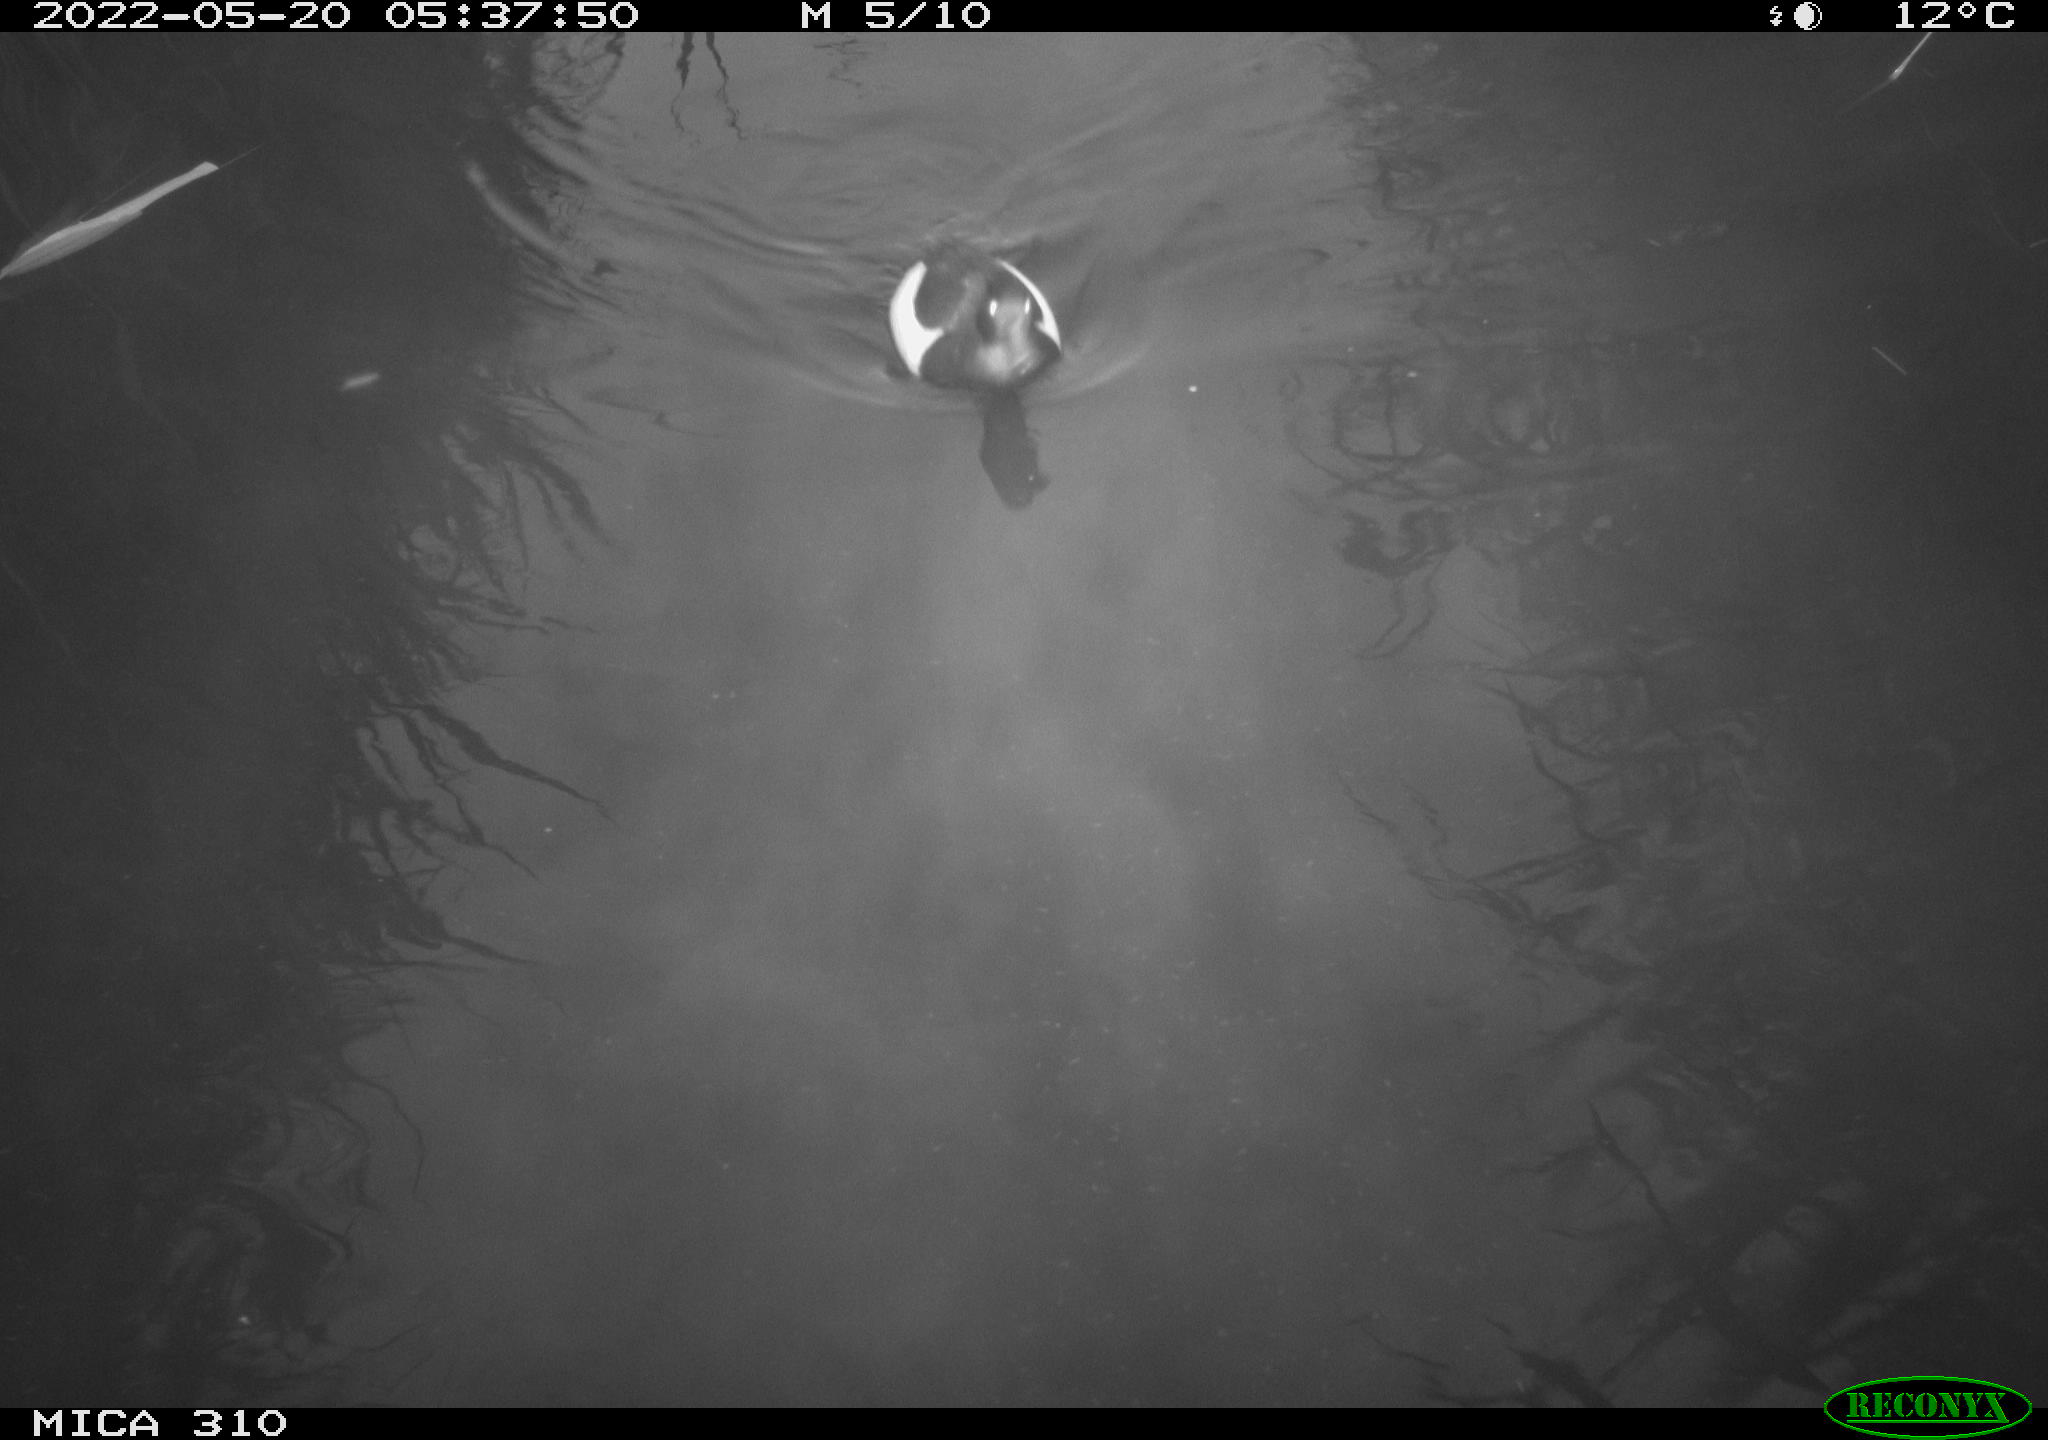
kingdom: Animalia
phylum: Chordata
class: Aves
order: Gruiformes
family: Rallidae
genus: Fulica
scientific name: Fulica atra
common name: Eurasian coot
